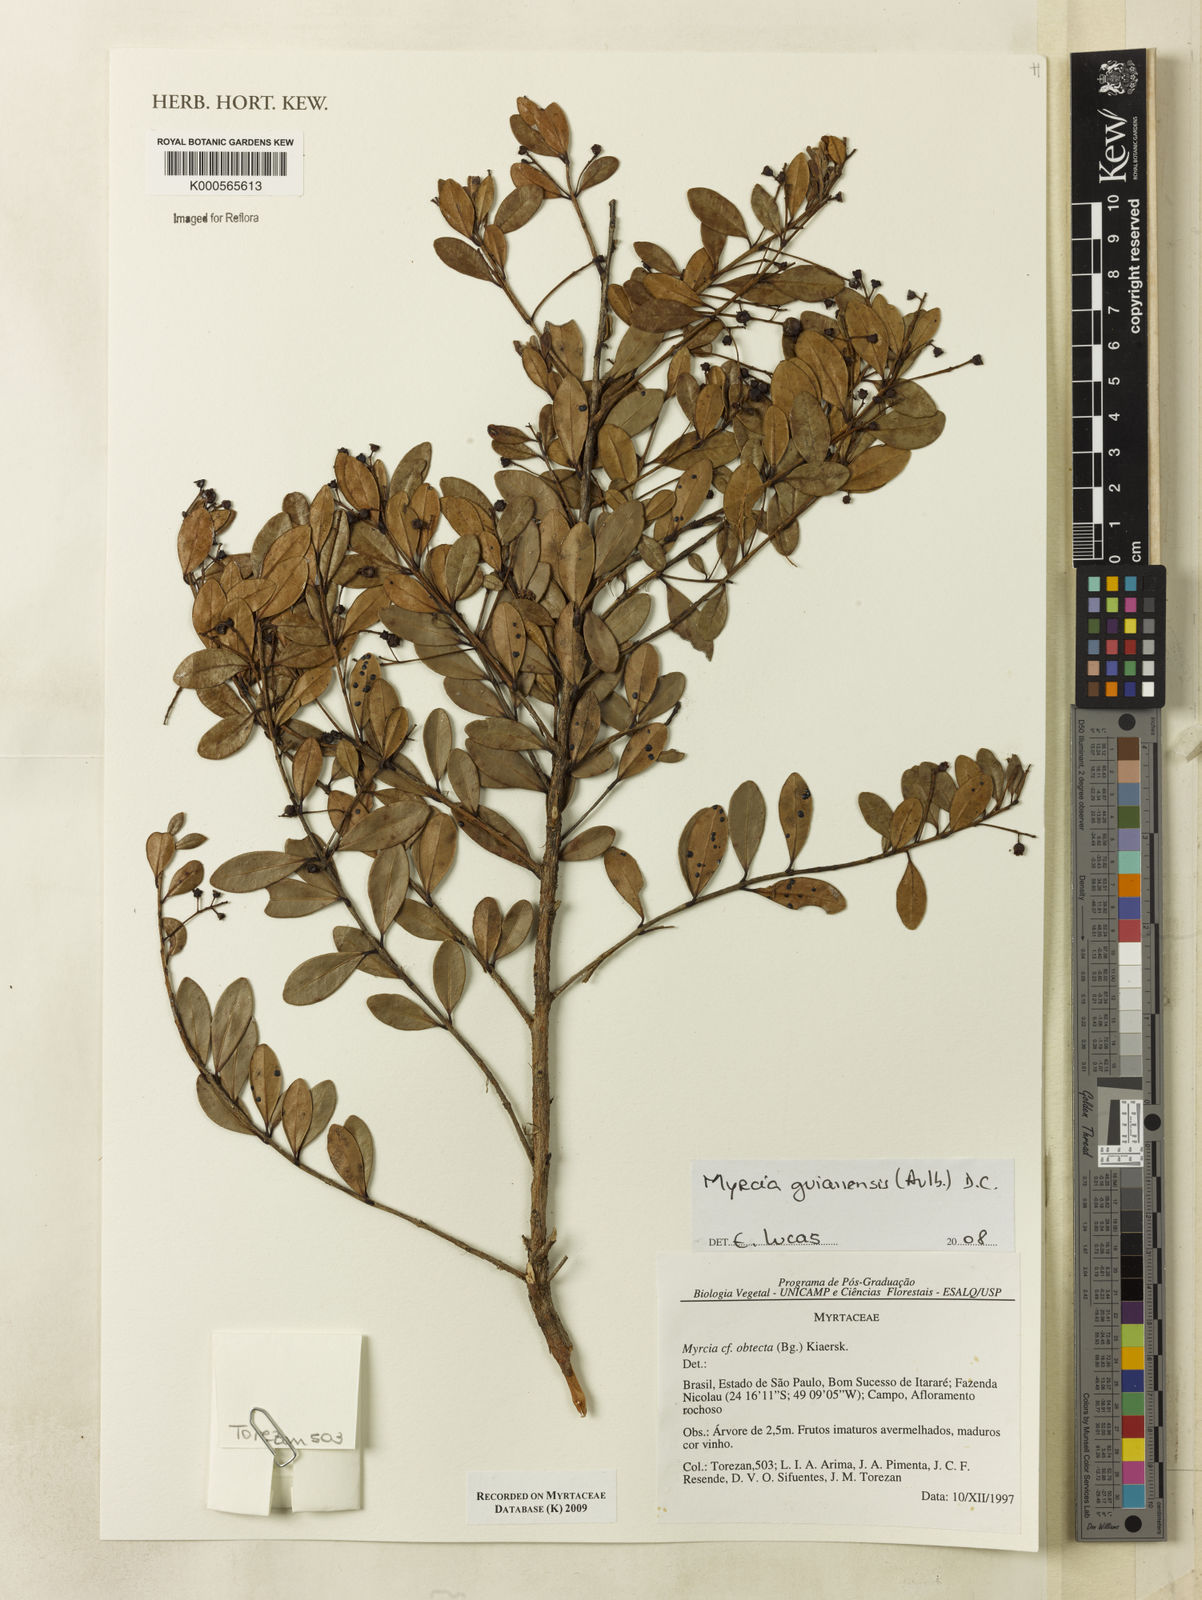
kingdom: Plantae
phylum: Tracheophyta
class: Magnoliopsida
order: Myrtales
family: Myrtaceae
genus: Myrcia
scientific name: Myrcia guianensis
